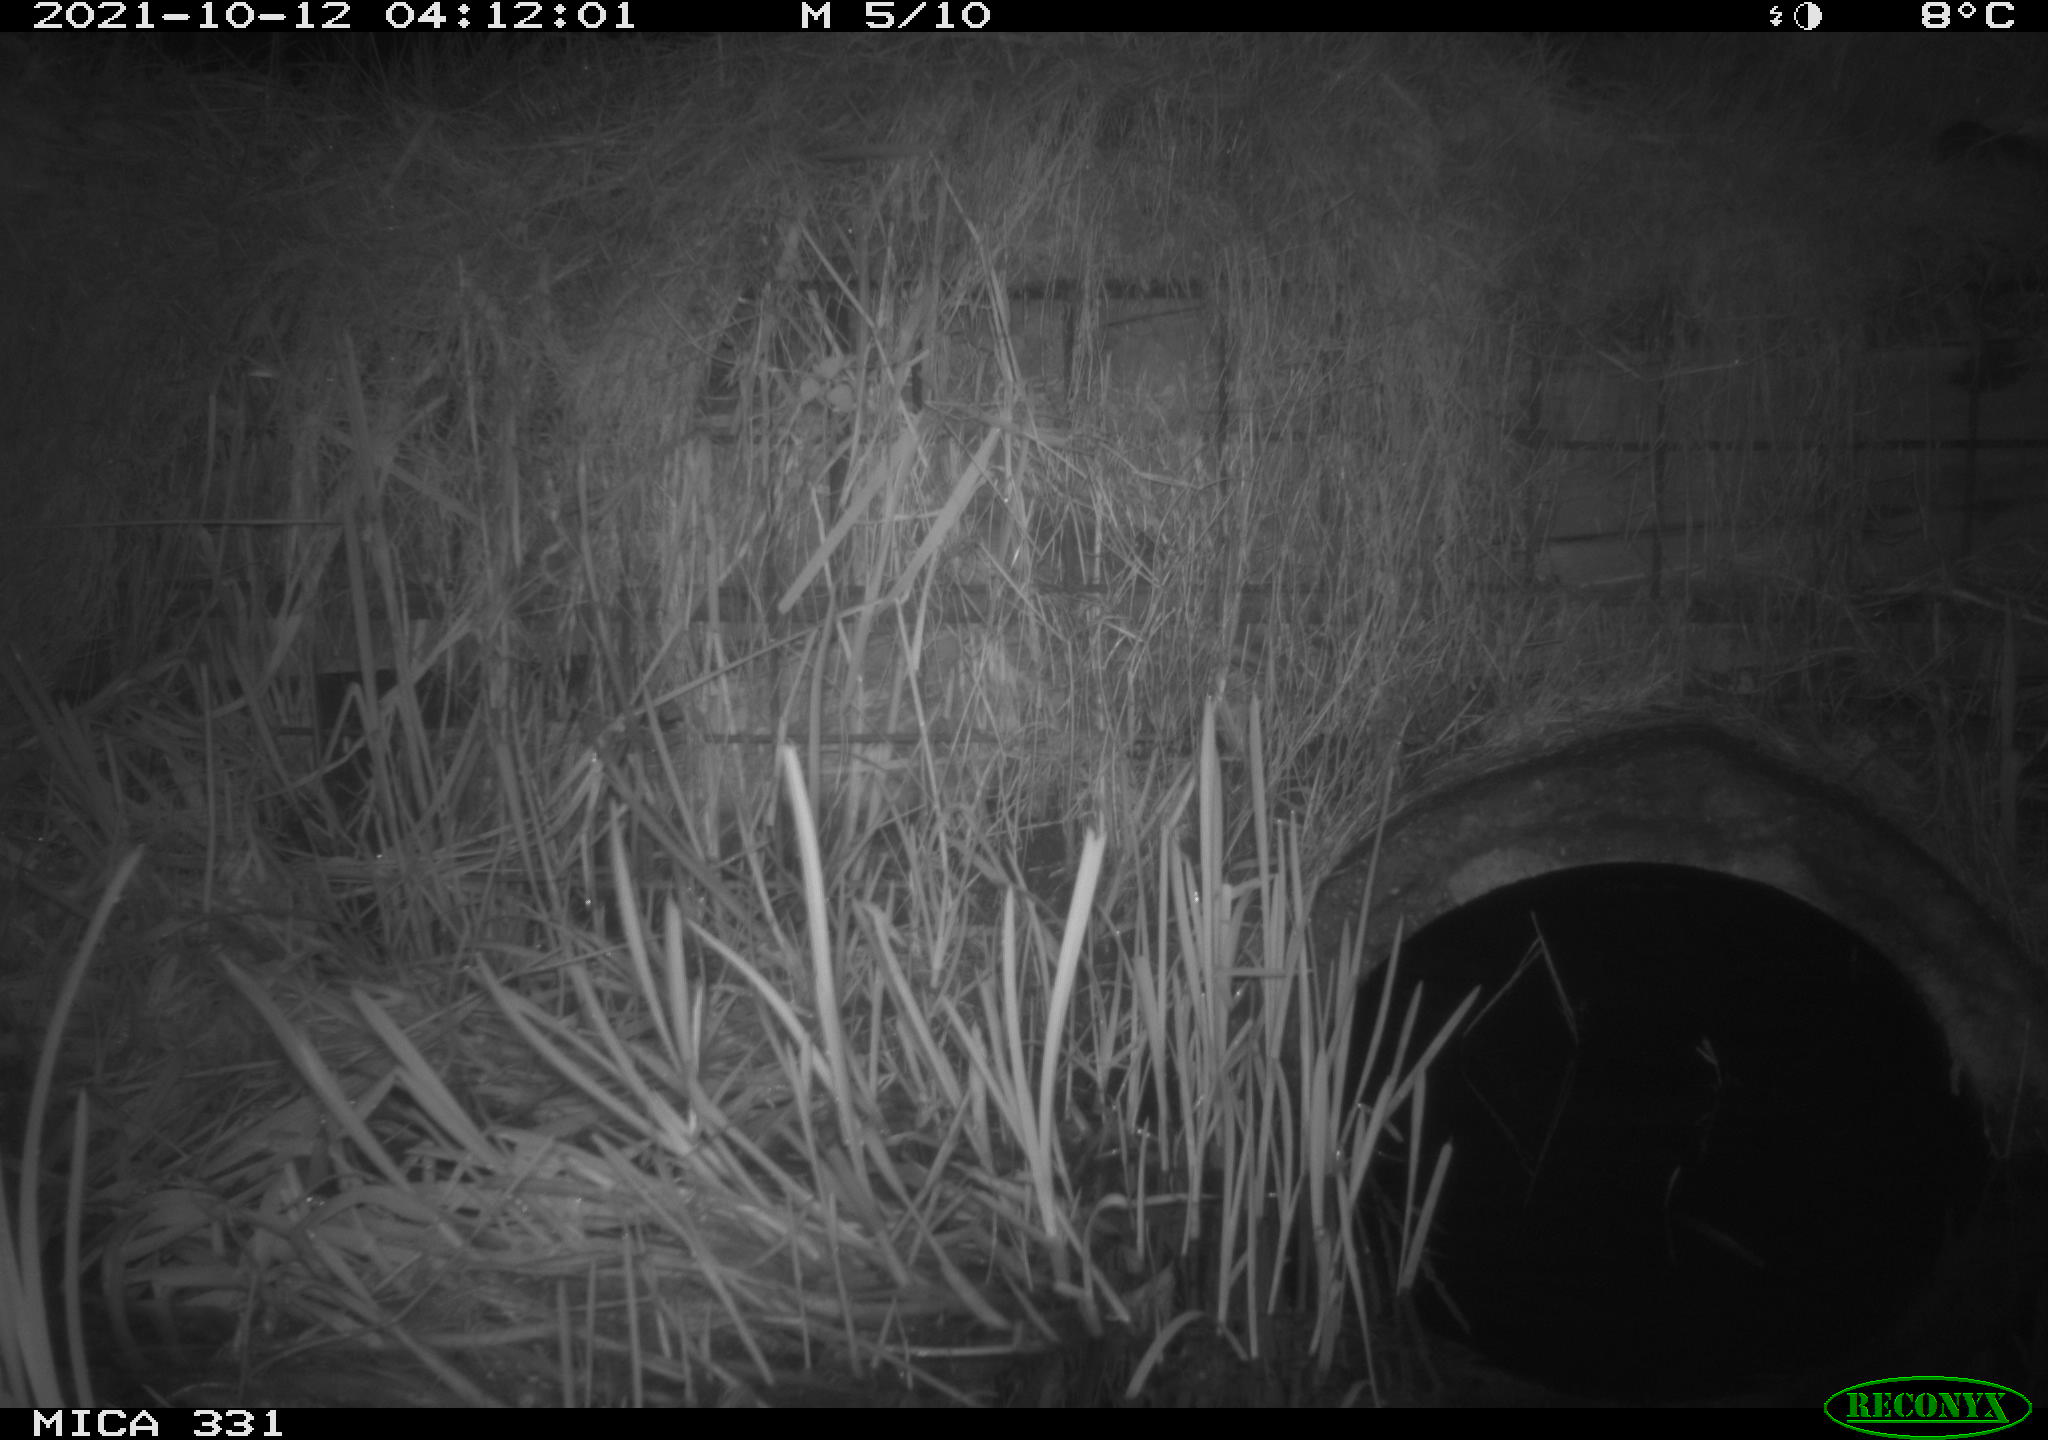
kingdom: Animalia
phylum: Chordata
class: Mammalia
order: Rodentia
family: Muridae
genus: Rattus
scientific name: Rattus norvegicus
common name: Brown rat
